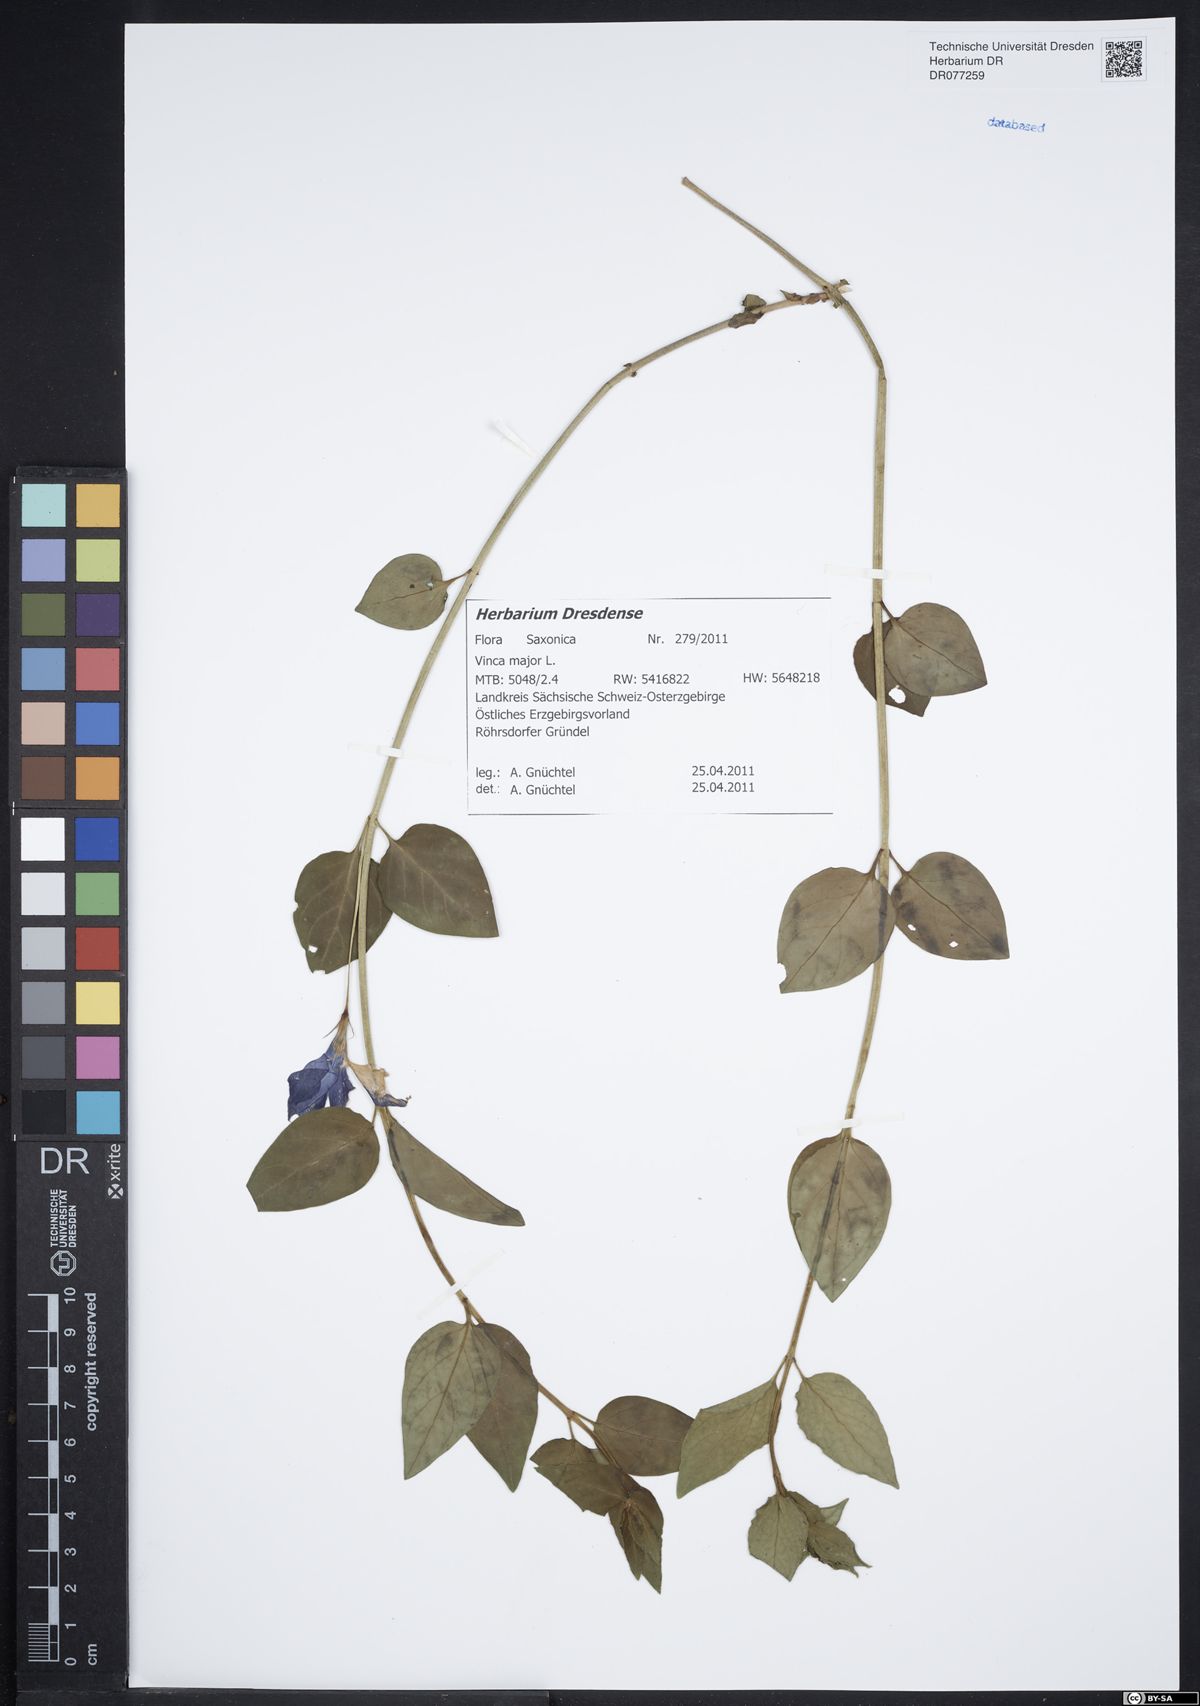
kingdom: Plantae
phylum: Tracheophyta
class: Magnoliopsida
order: Gentianales
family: Apocynaceae
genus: Vinca
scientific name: Vinca major
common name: Greater periwinkle
